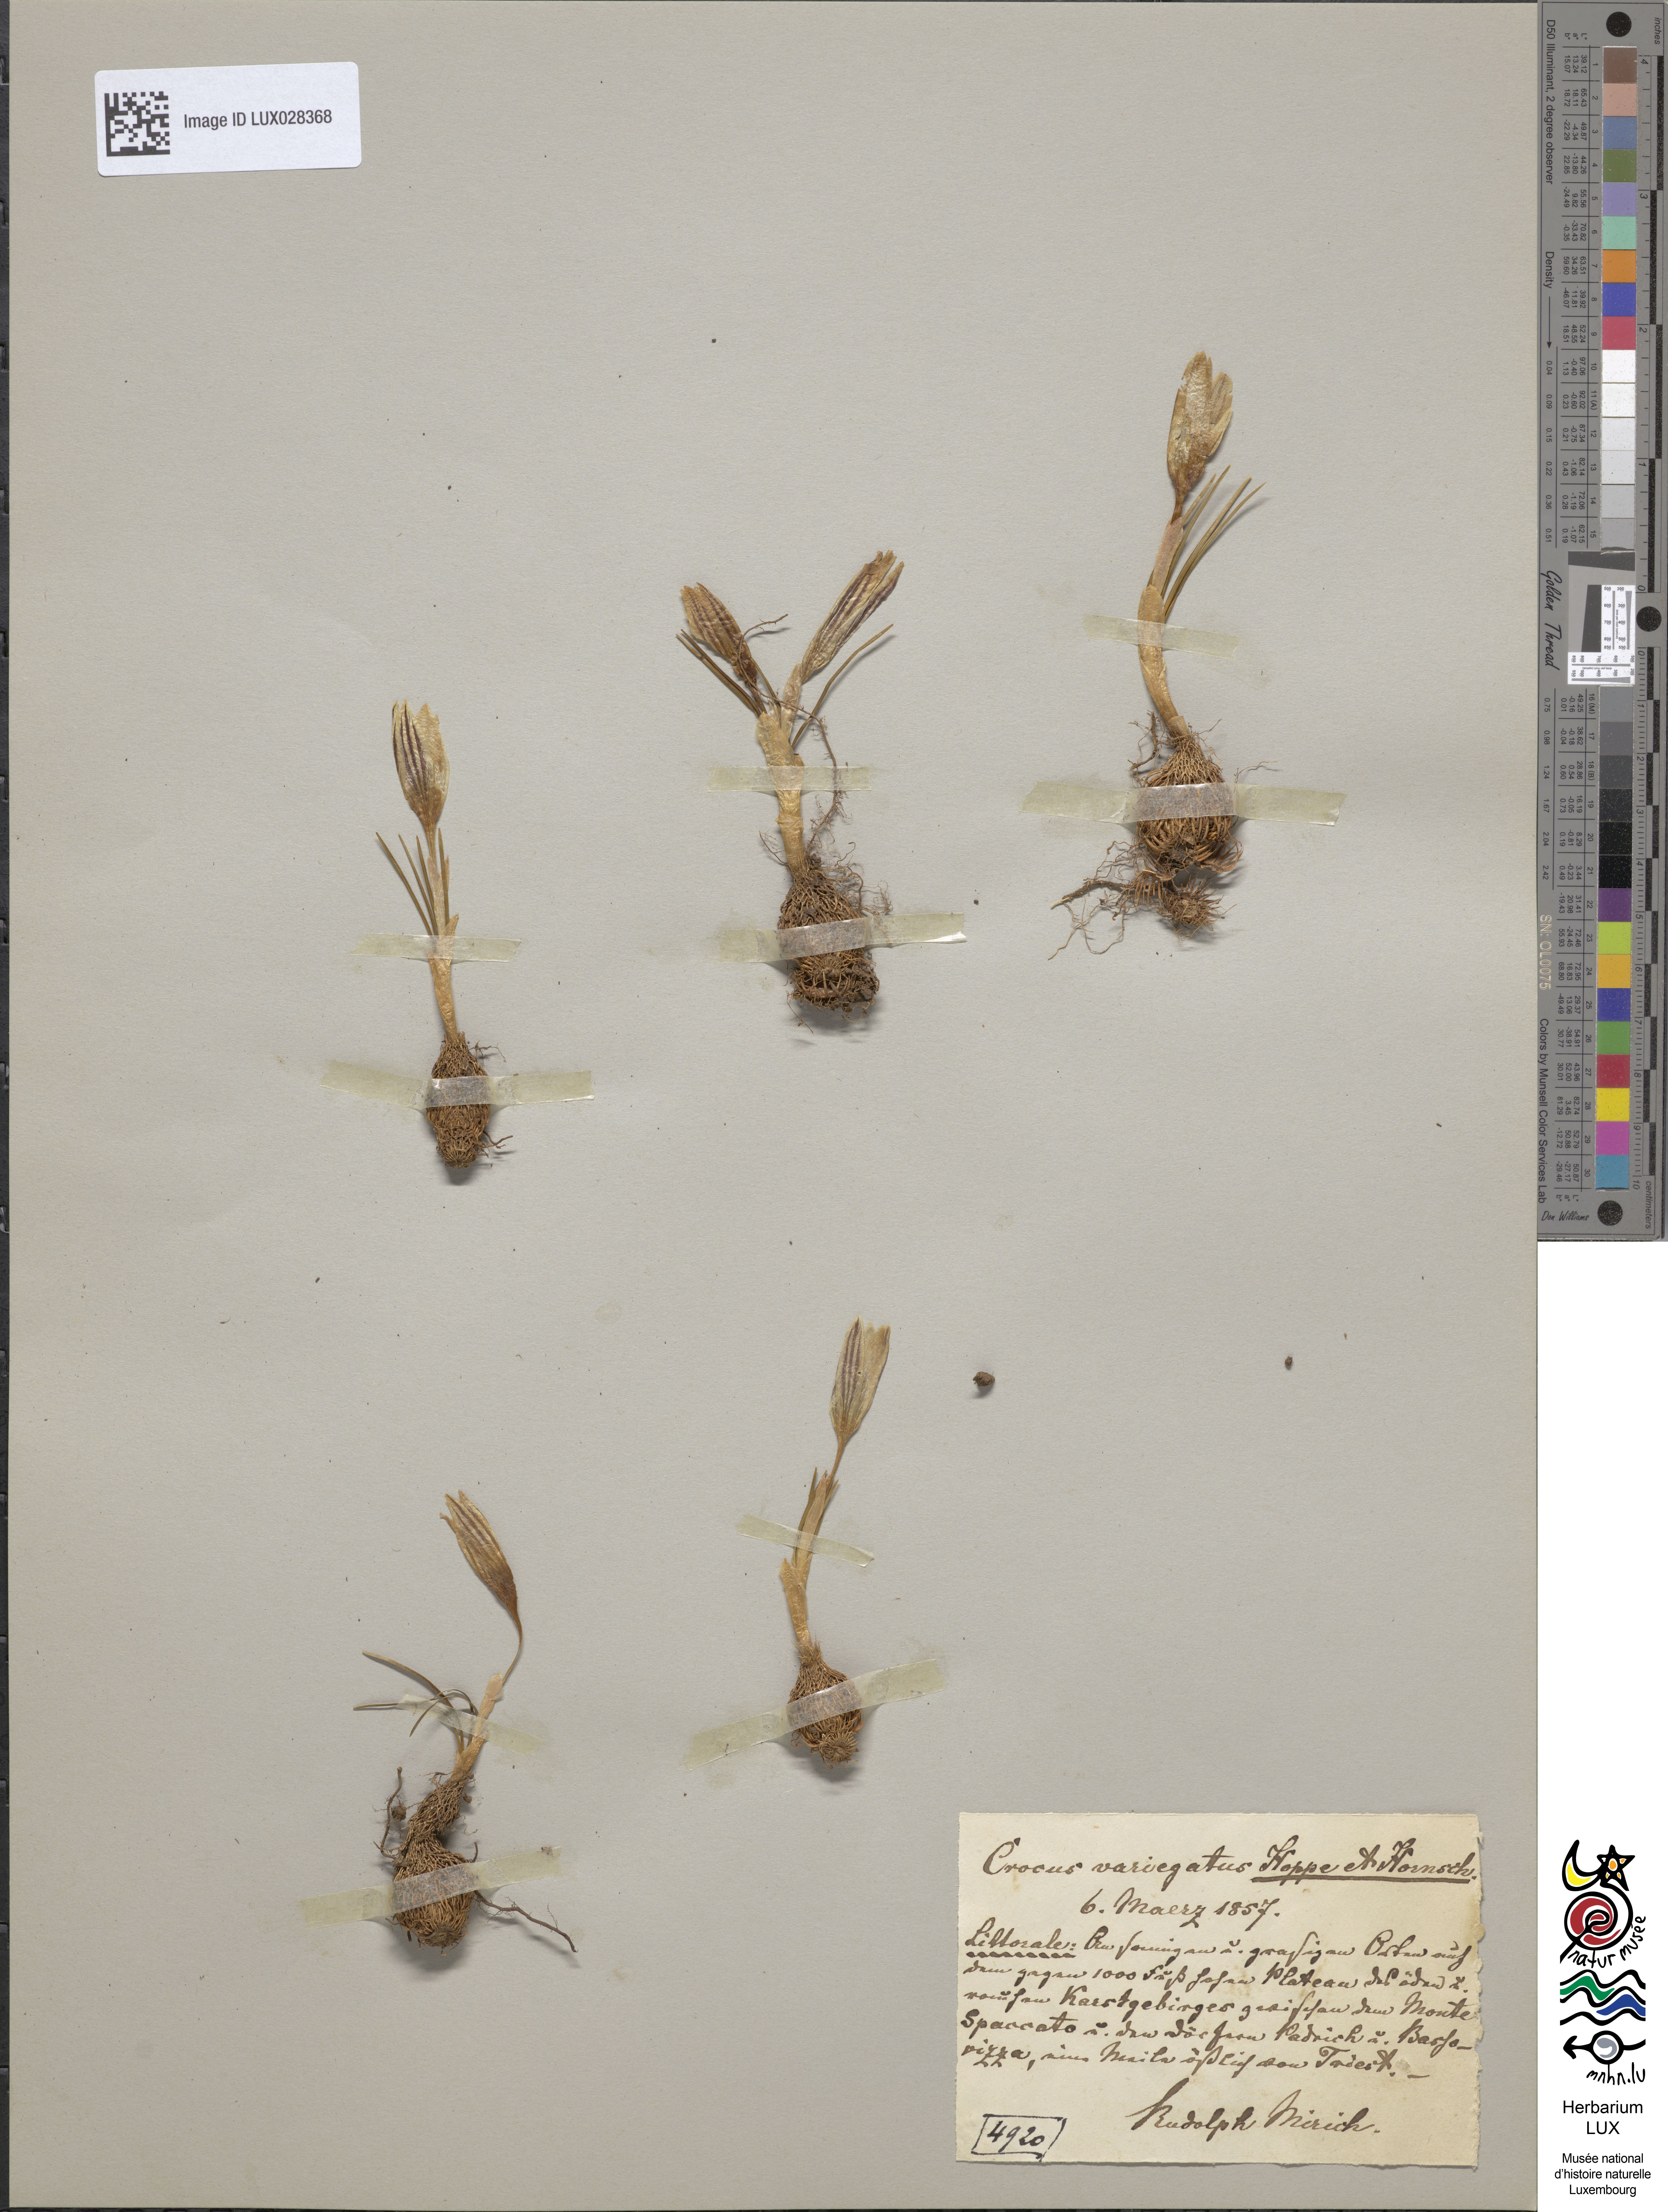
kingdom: Plantae
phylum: Tracheophyta
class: Liliopsida
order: Asparagales
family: Iridaceae
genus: Crocus
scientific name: Crocus reticulatus
